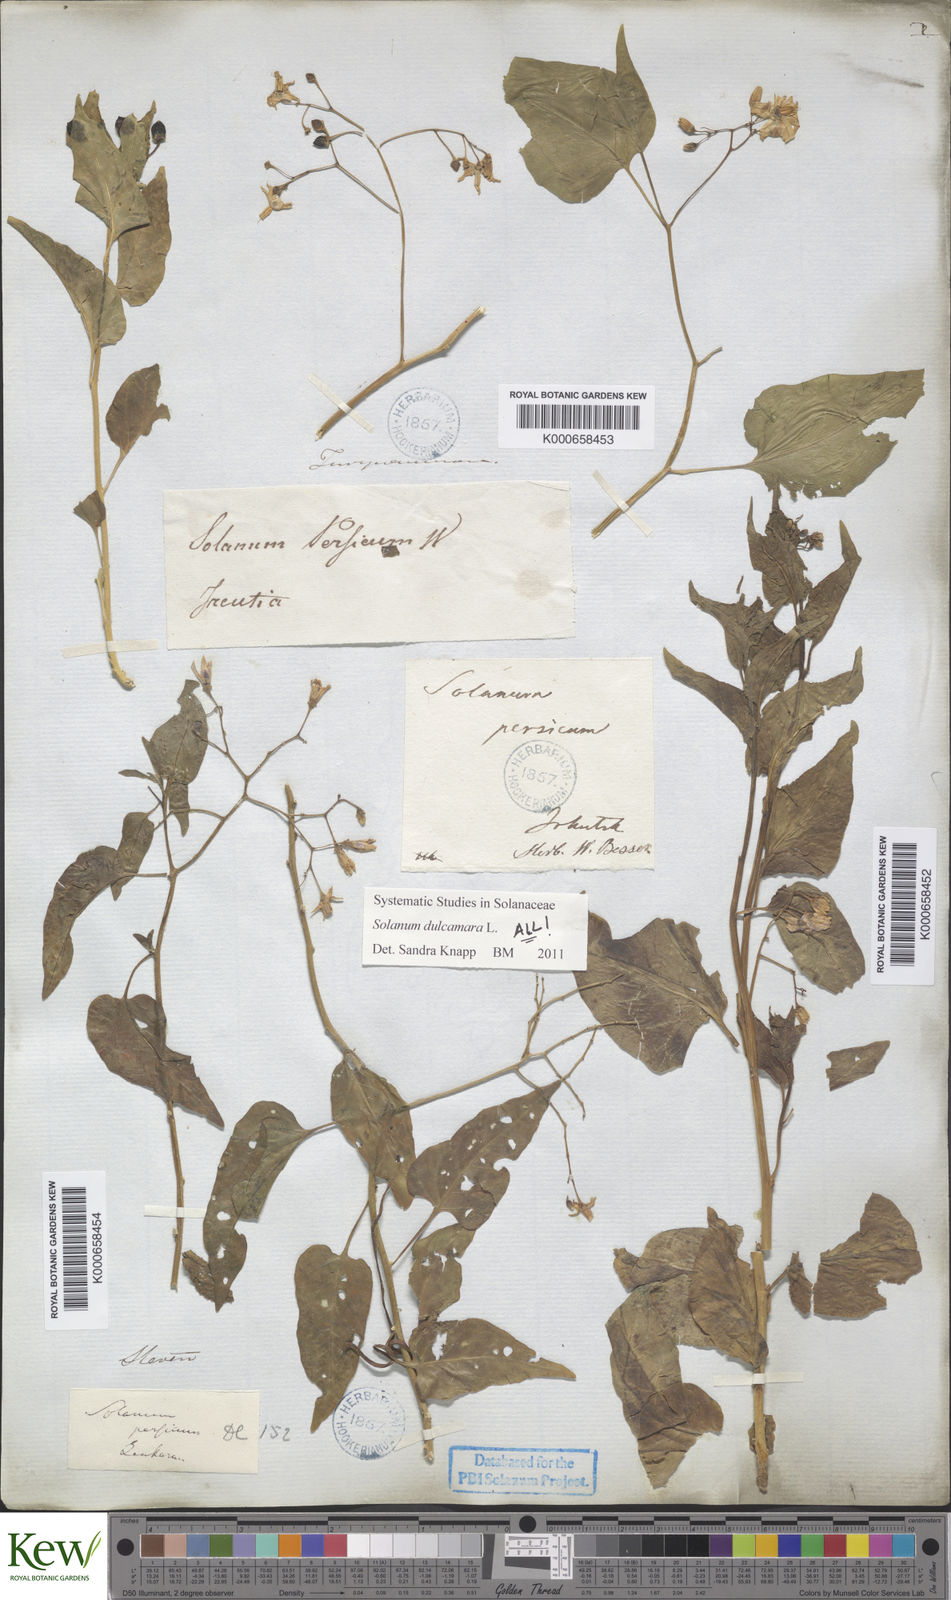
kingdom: Plantae
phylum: Tracheophyta
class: Magnoliopsida
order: Solanales
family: Solanaceae
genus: Solanum
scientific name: Solanum dulcamara
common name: Climbing nightshade
